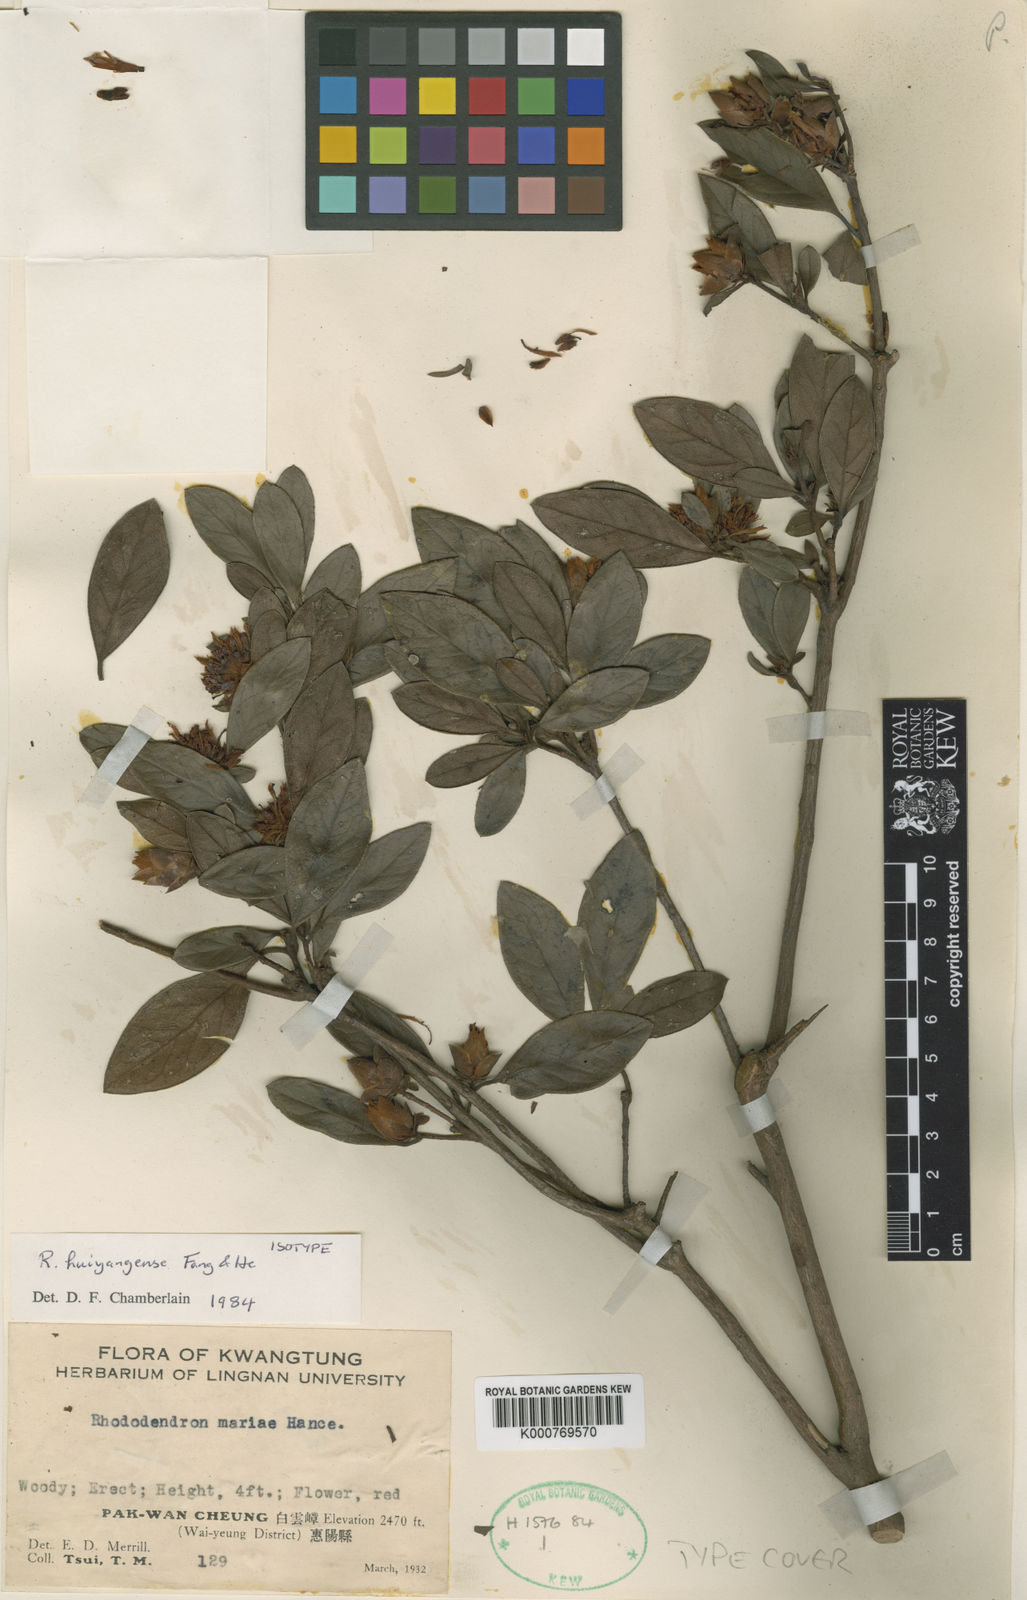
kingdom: Plantae
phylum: Tracheophyta
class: Magnoliopsida
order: Ericales
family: Ericaceae
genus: Rhododendron
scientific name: Rhododendron tingwuense
